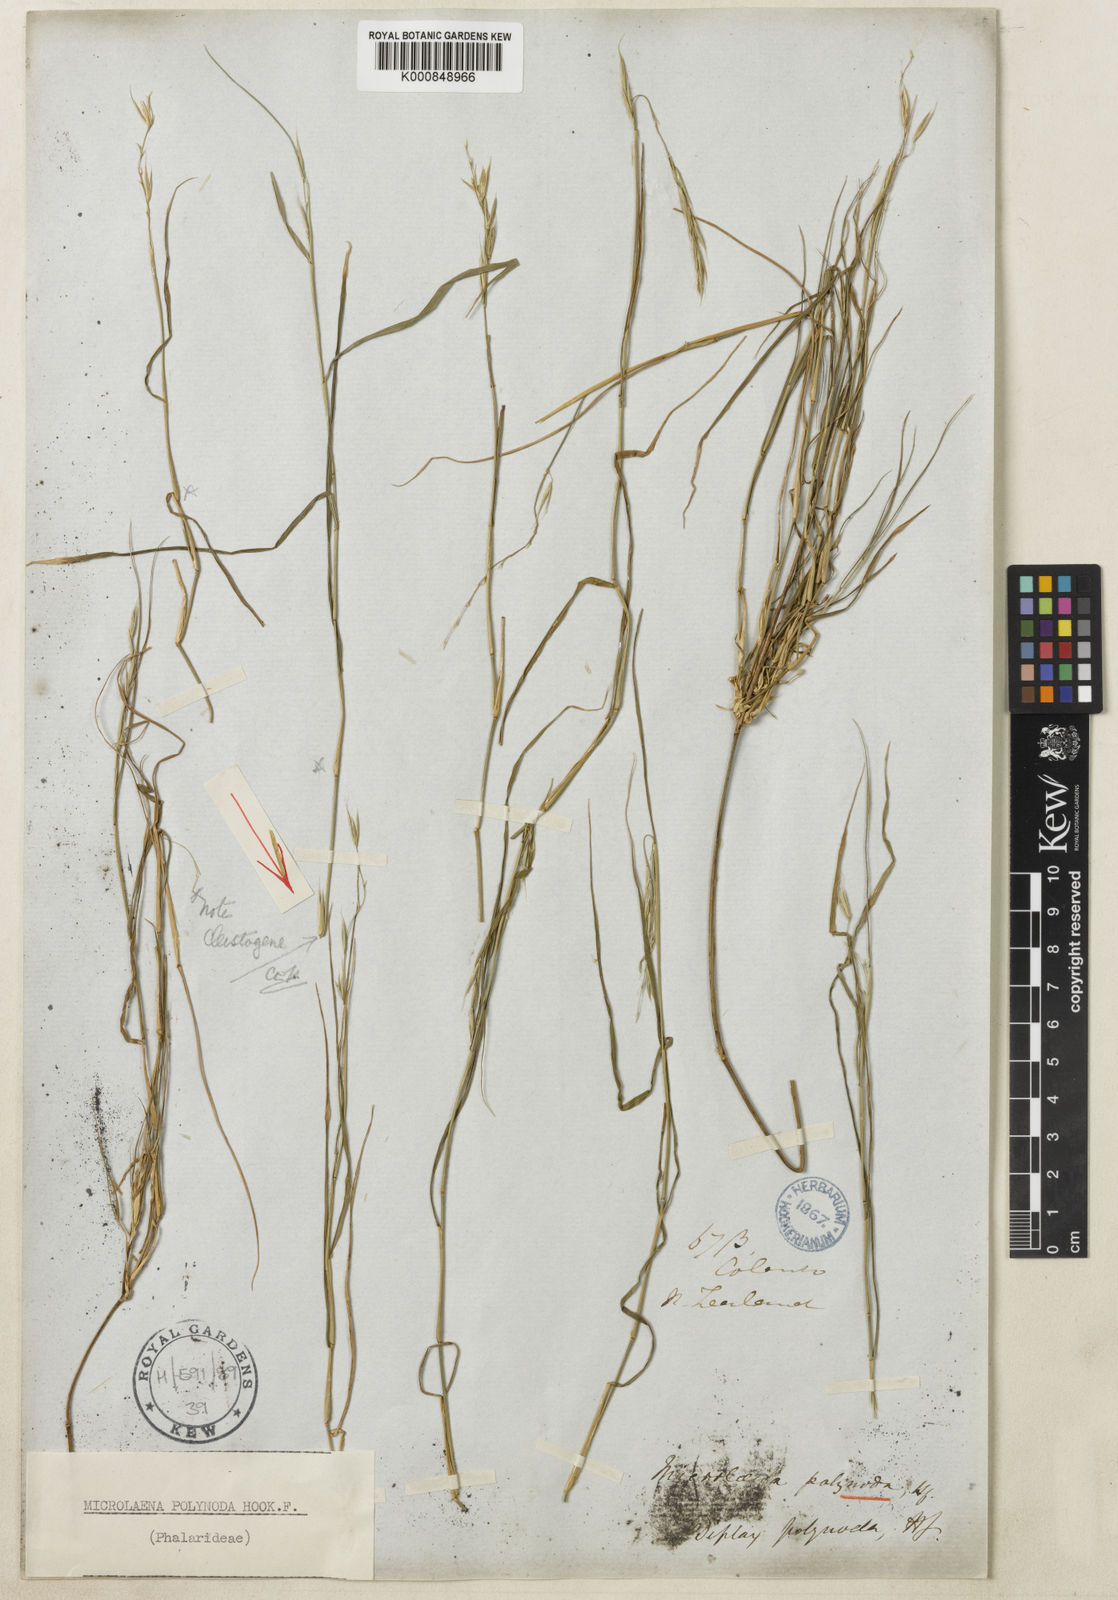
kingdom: Plantae
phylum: Tracheophyta
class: Liliopsida
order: Poales
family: Poaceae
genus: Ehrharta
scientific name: Ehrharta
